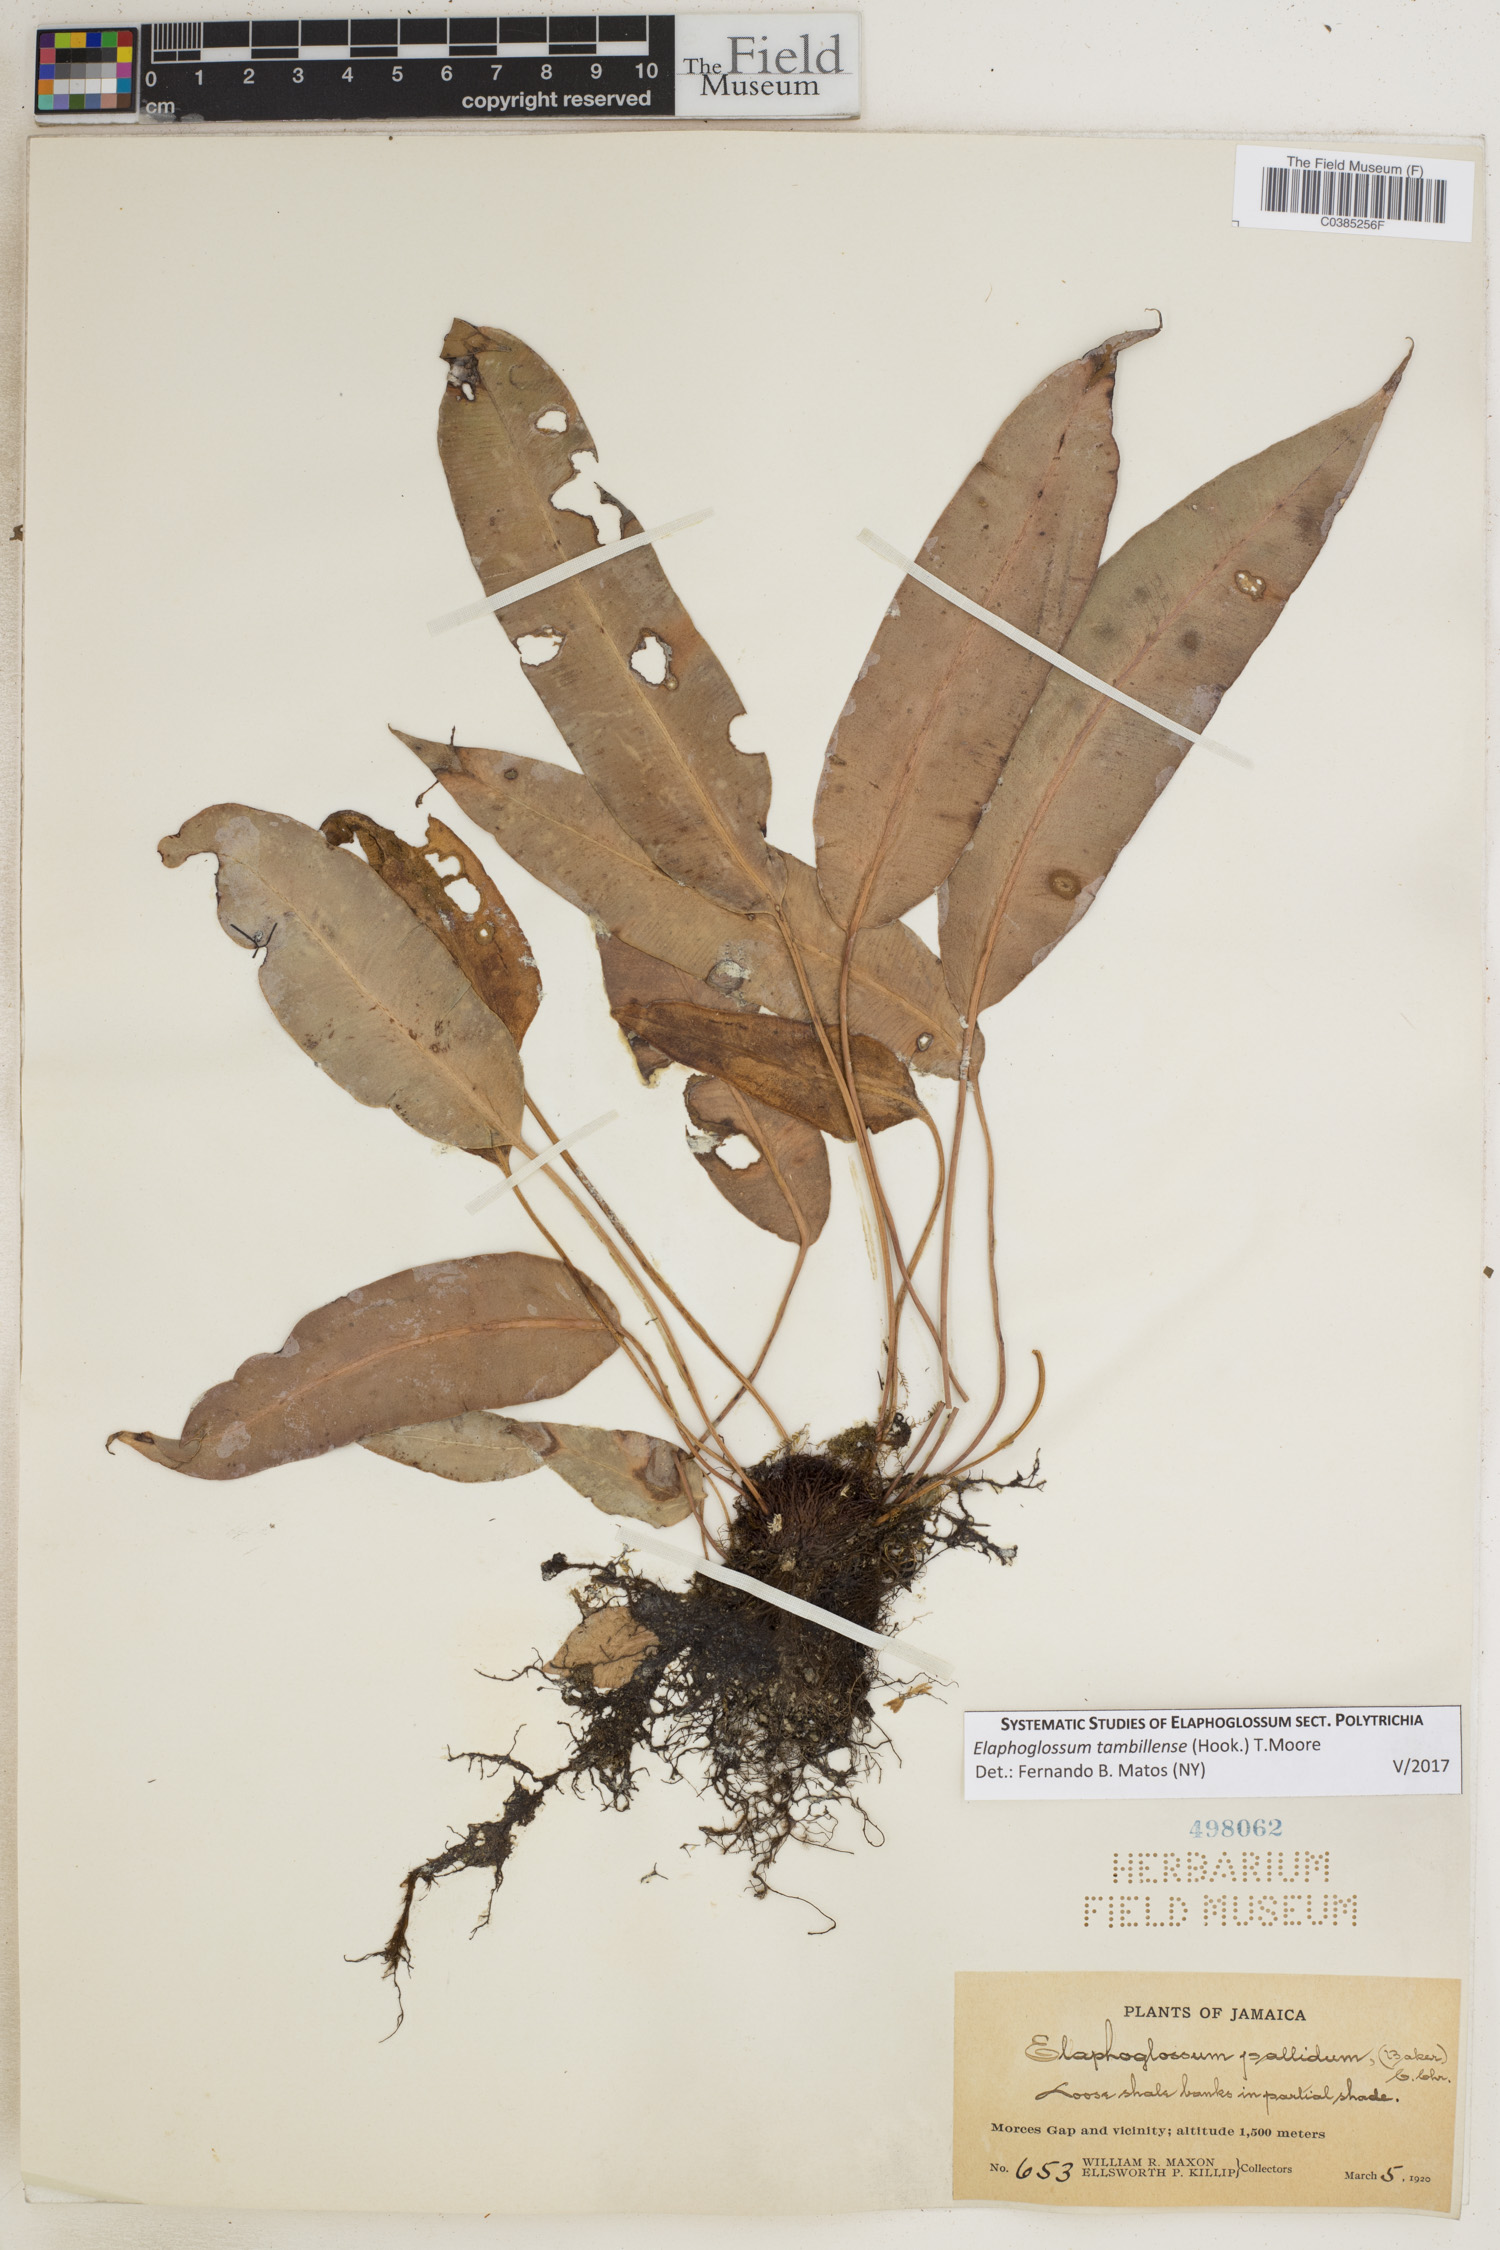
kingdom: Plantae
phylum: Tracheophyta
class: Polypodiopsida
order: Polypodiales
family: Dryopteridaceae
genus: Elaphoglossum
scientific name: Elaphoglossum tambillense
